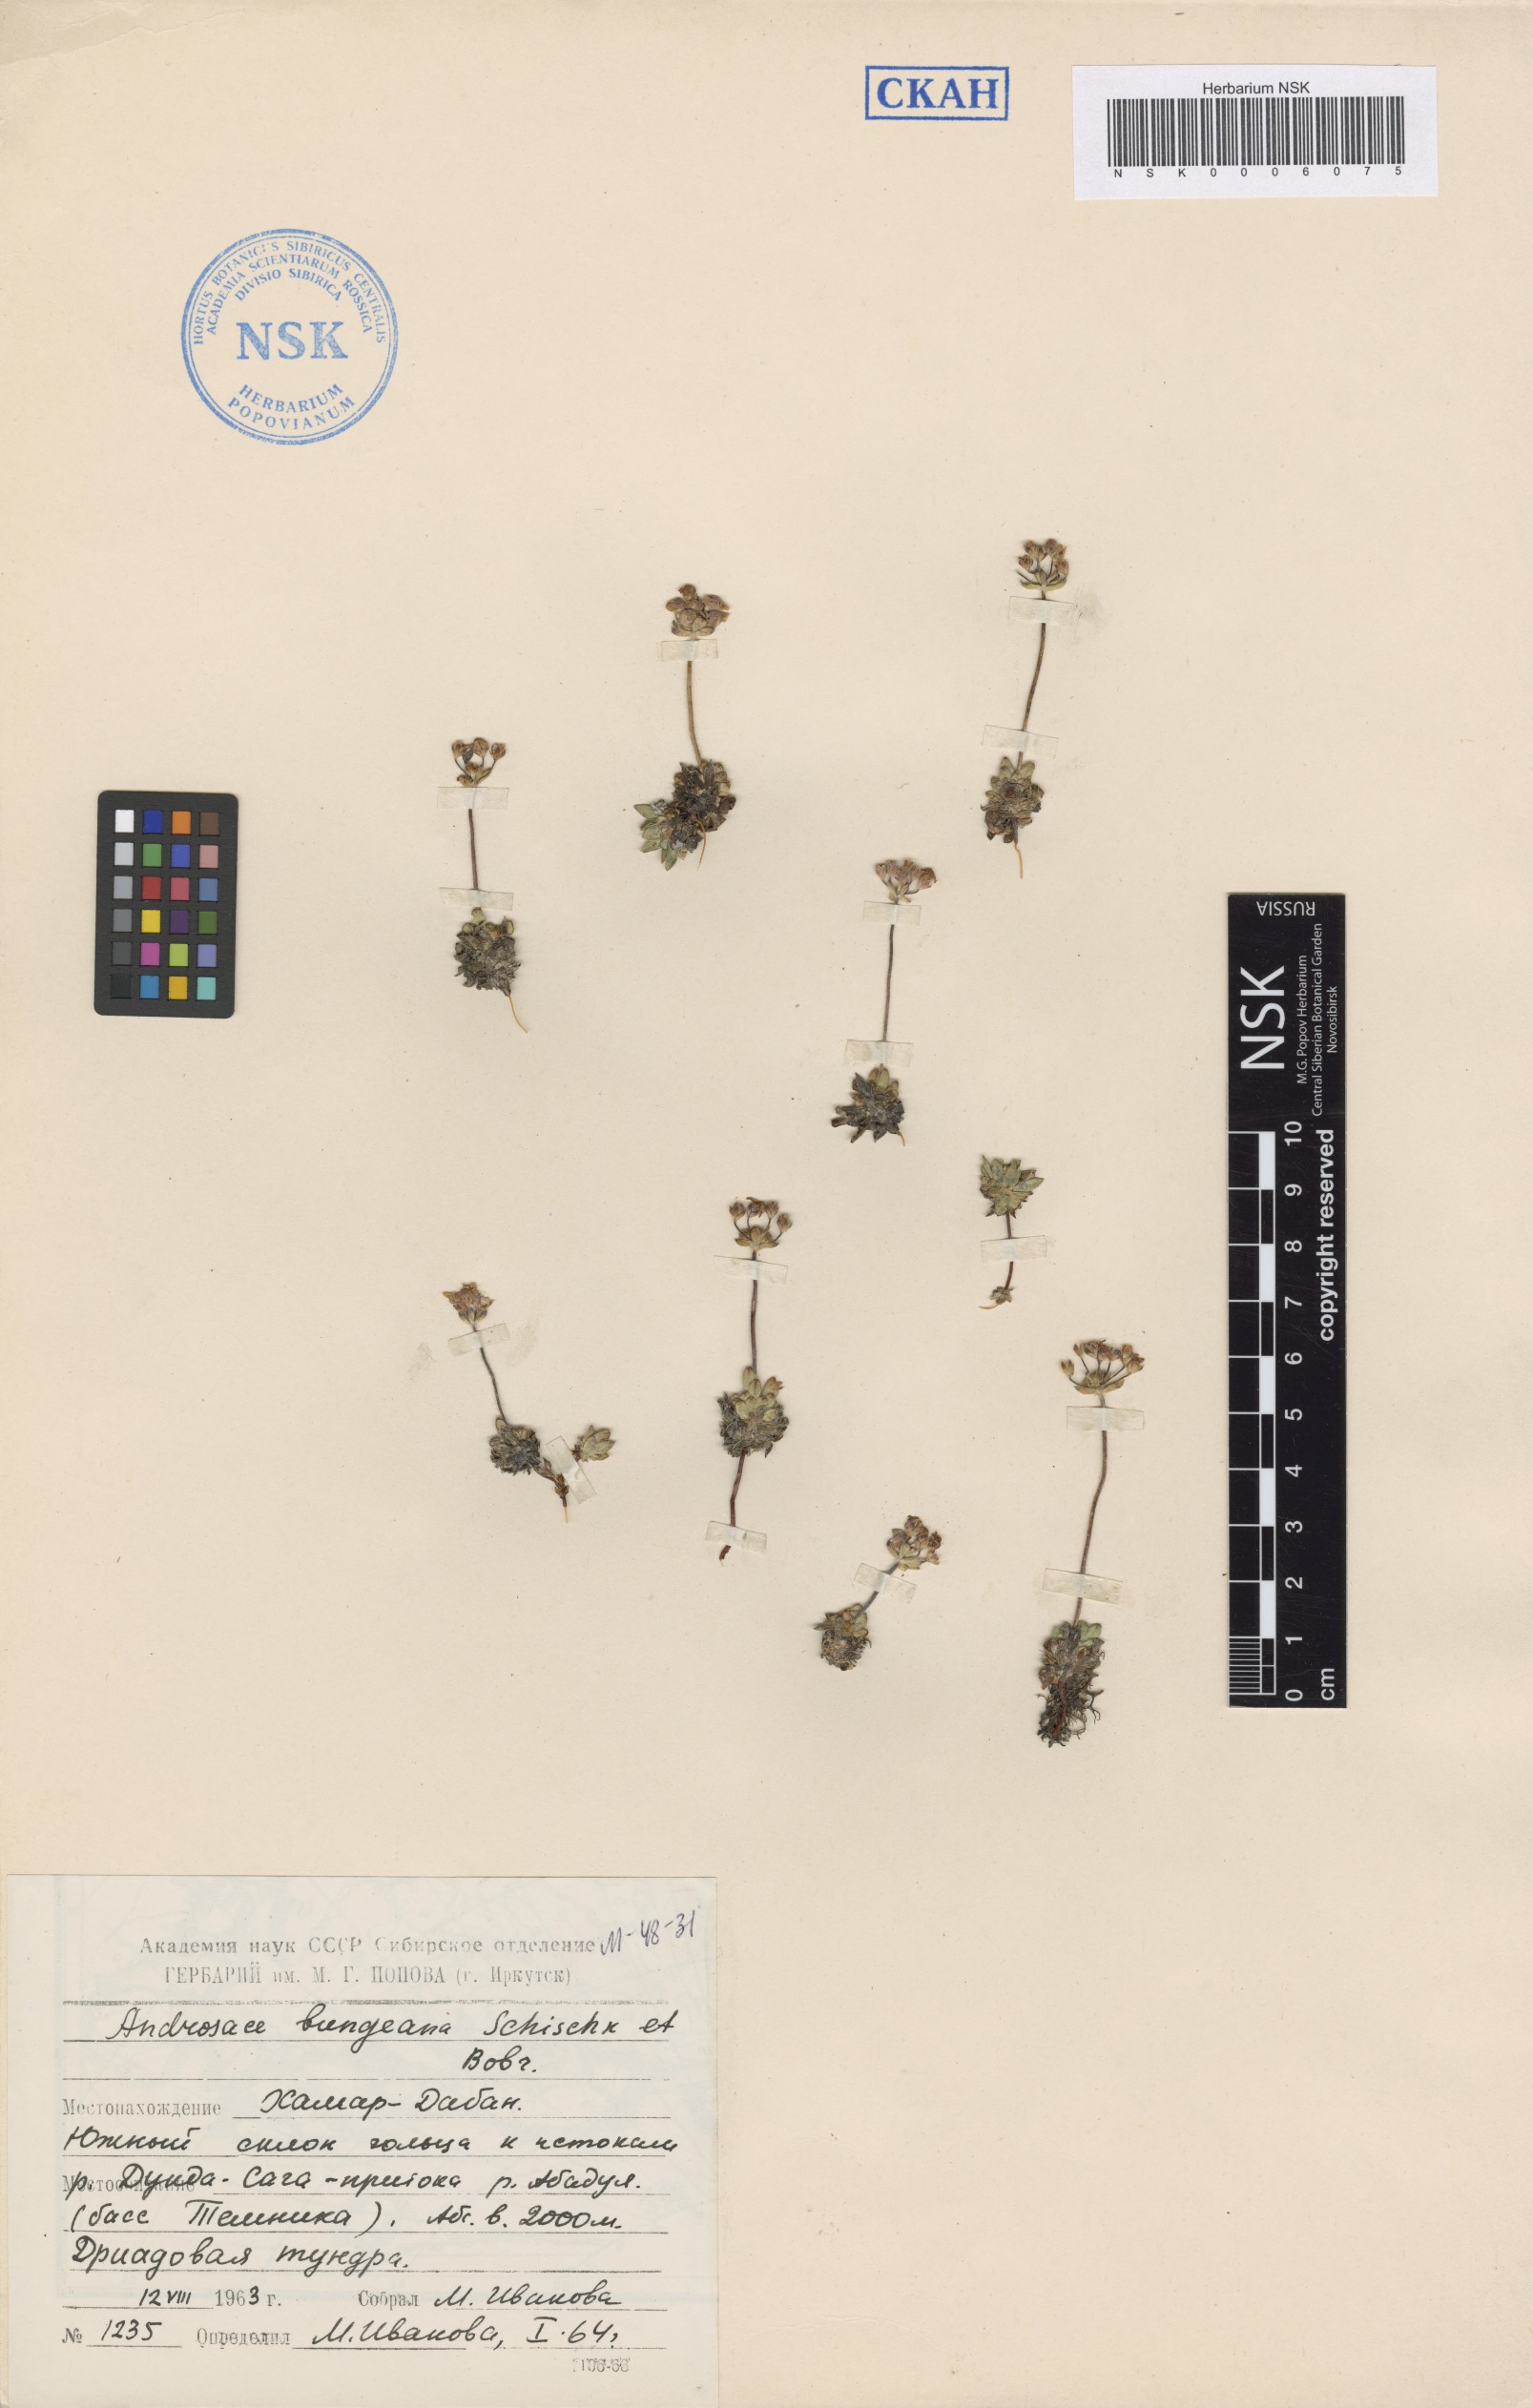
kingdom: Plantae
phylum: Tracheophyta
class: Magnoliopsida
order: Ericales
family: Primulaceae
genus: Androsace
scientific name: Androsace bungeana
